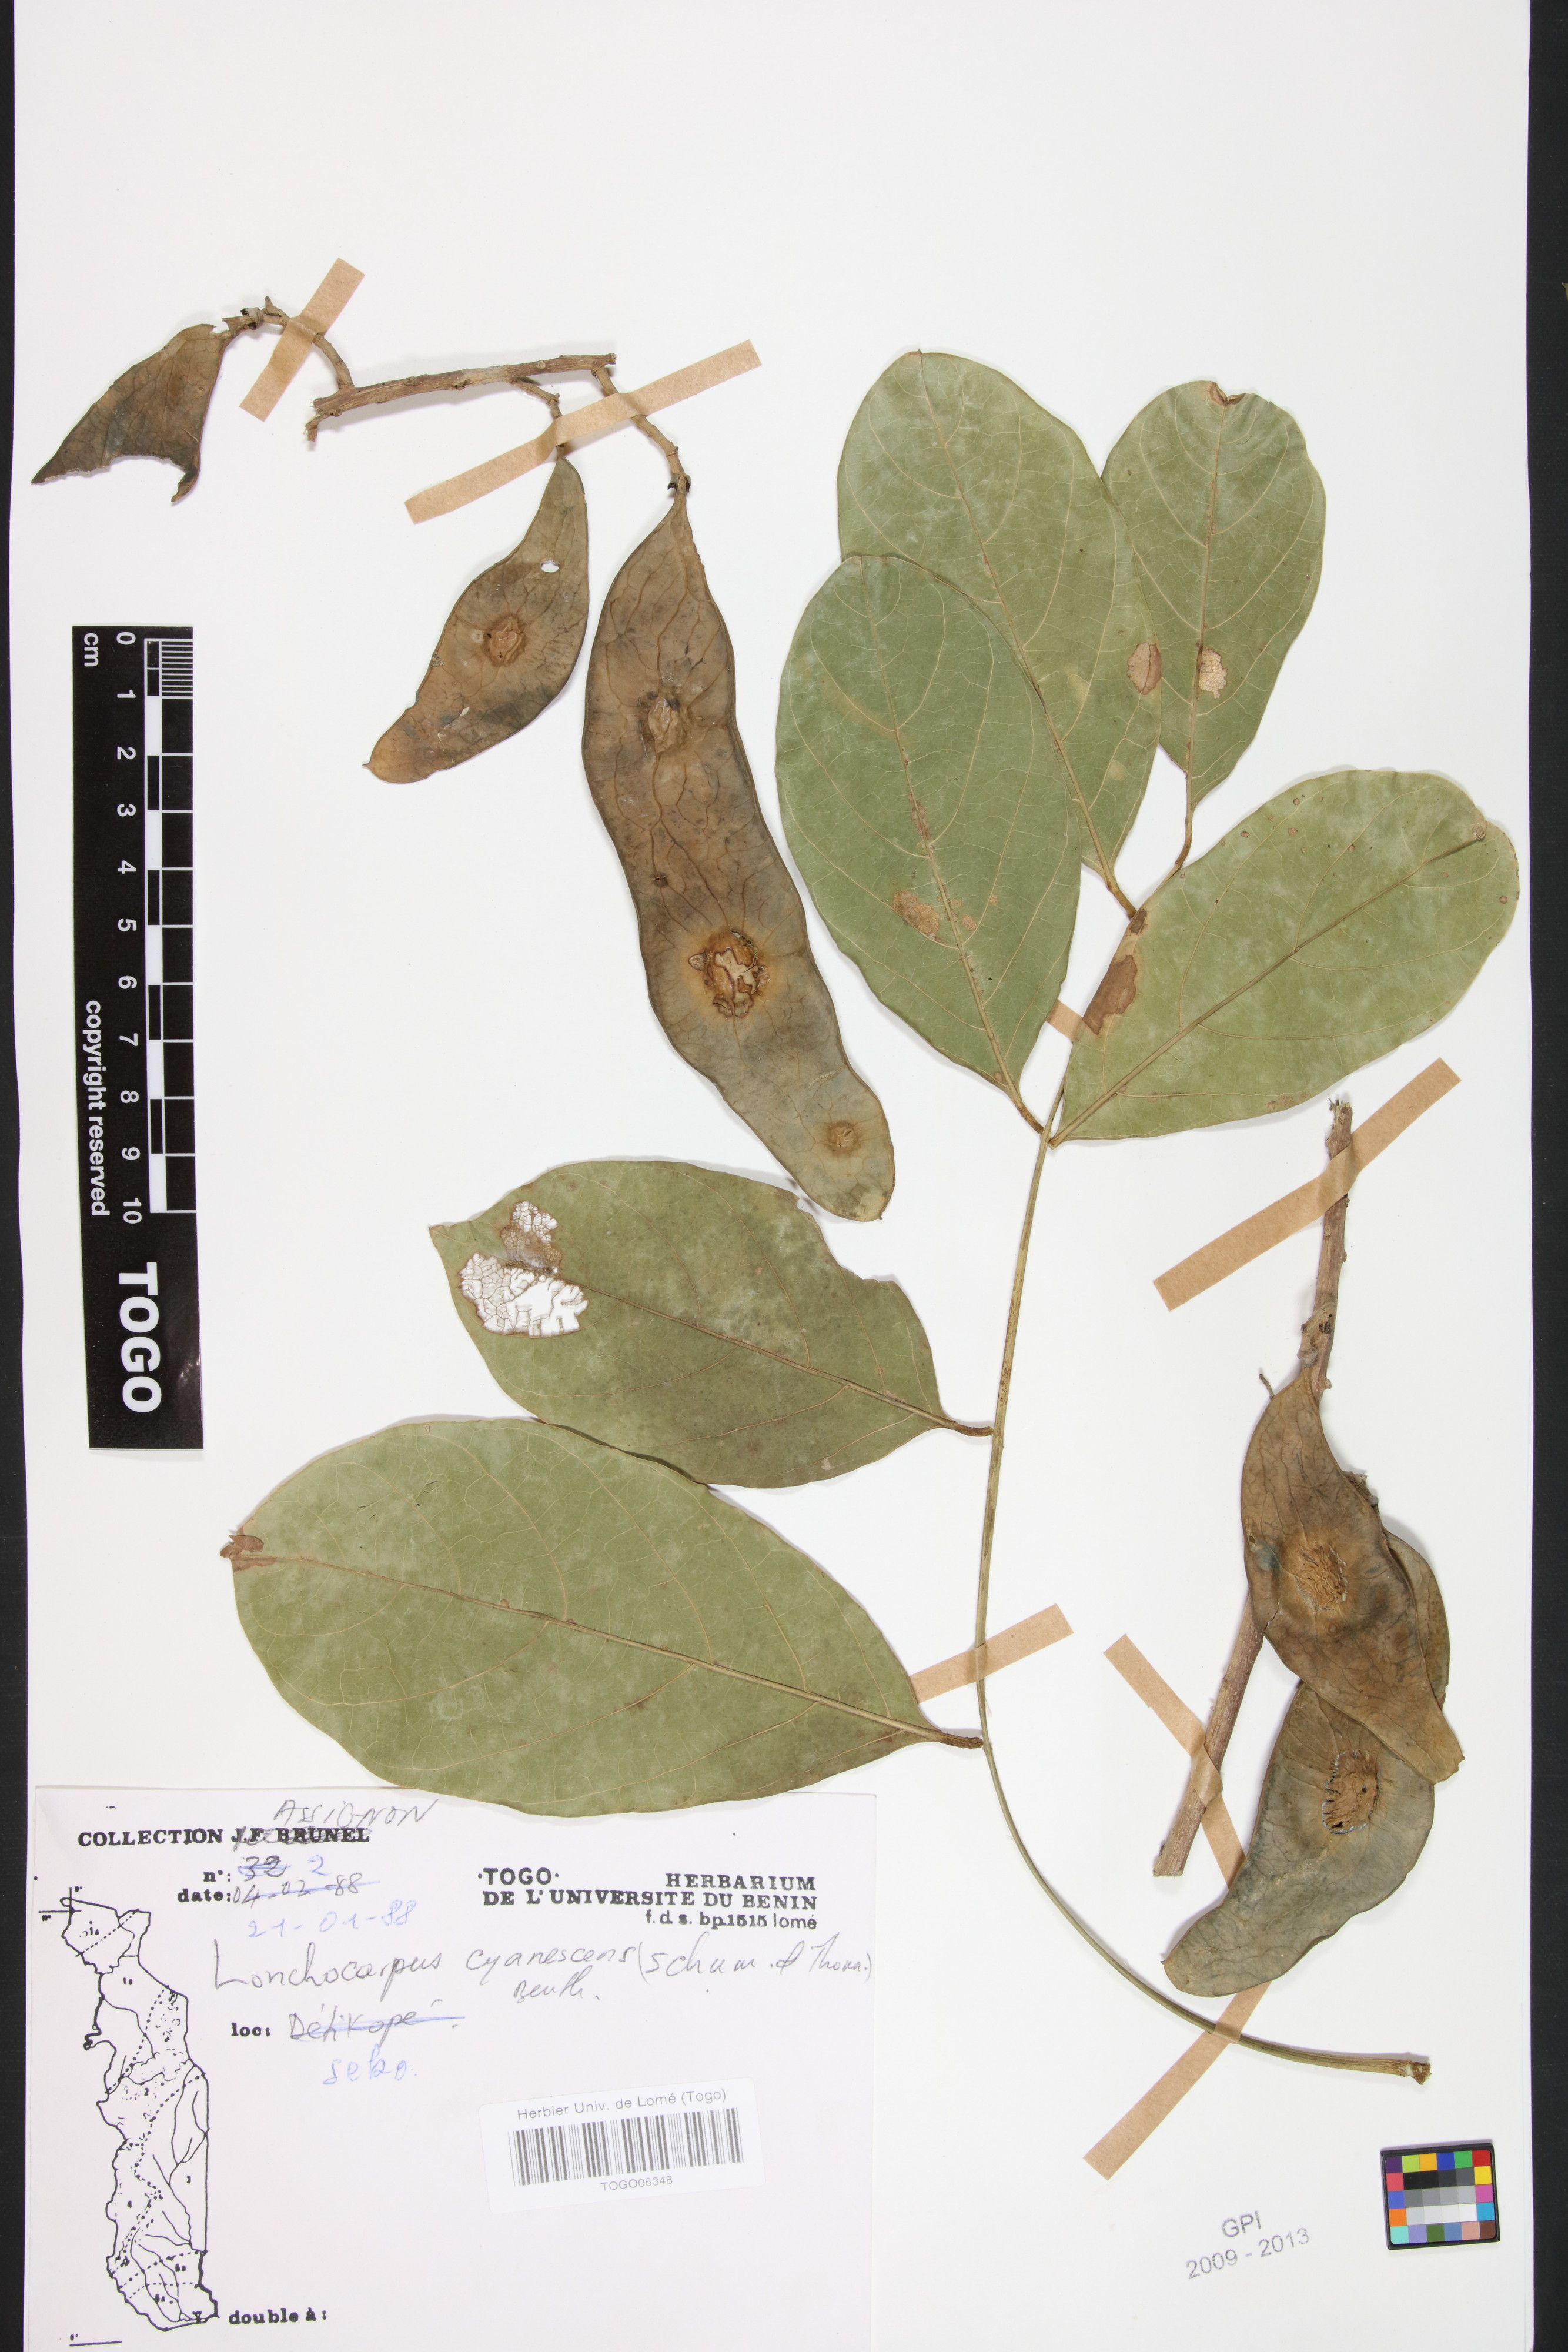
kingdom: Plantae
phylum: Tracheophyta
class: Magnoliopsida
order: Fabales
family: Fabaceae
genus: Philenoptera
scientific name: Philenoptera cyanescens
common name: West african-indigo
